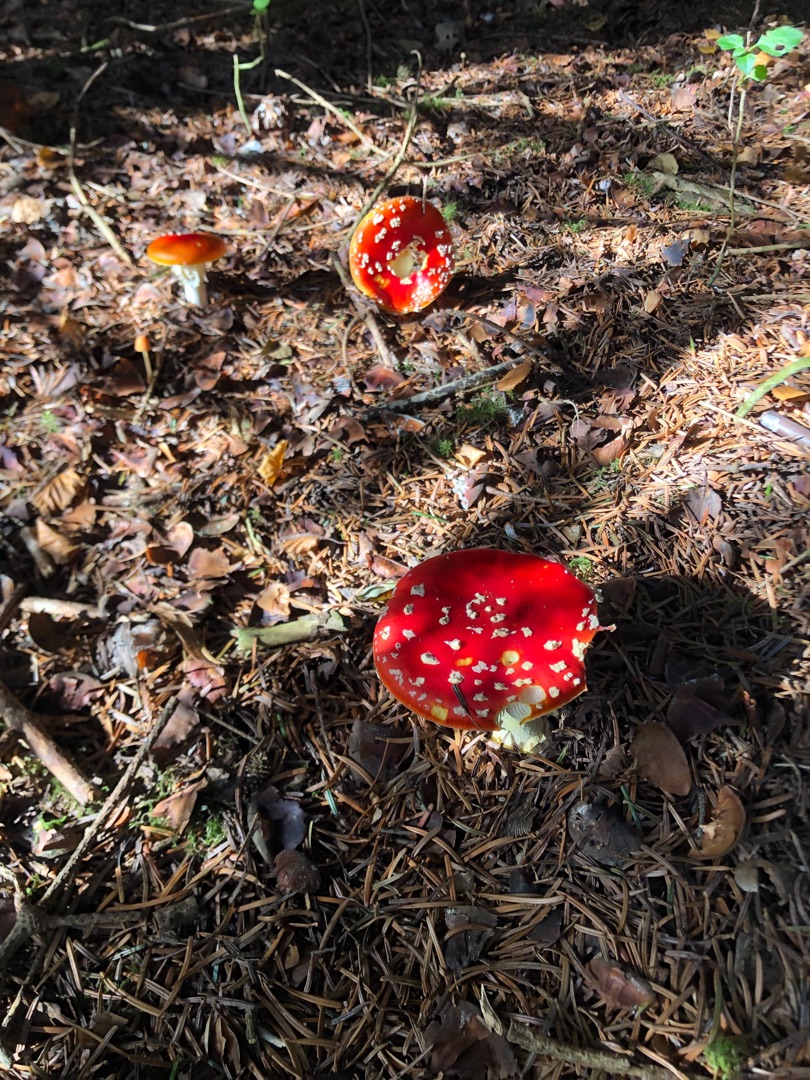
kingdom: Fungi
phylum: Basidiomycota
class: Agaricomycetes
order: Agaricales
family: Amanitaceae
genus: Amanita
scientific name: Amanita muscaria
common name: Rød fluesvamp
